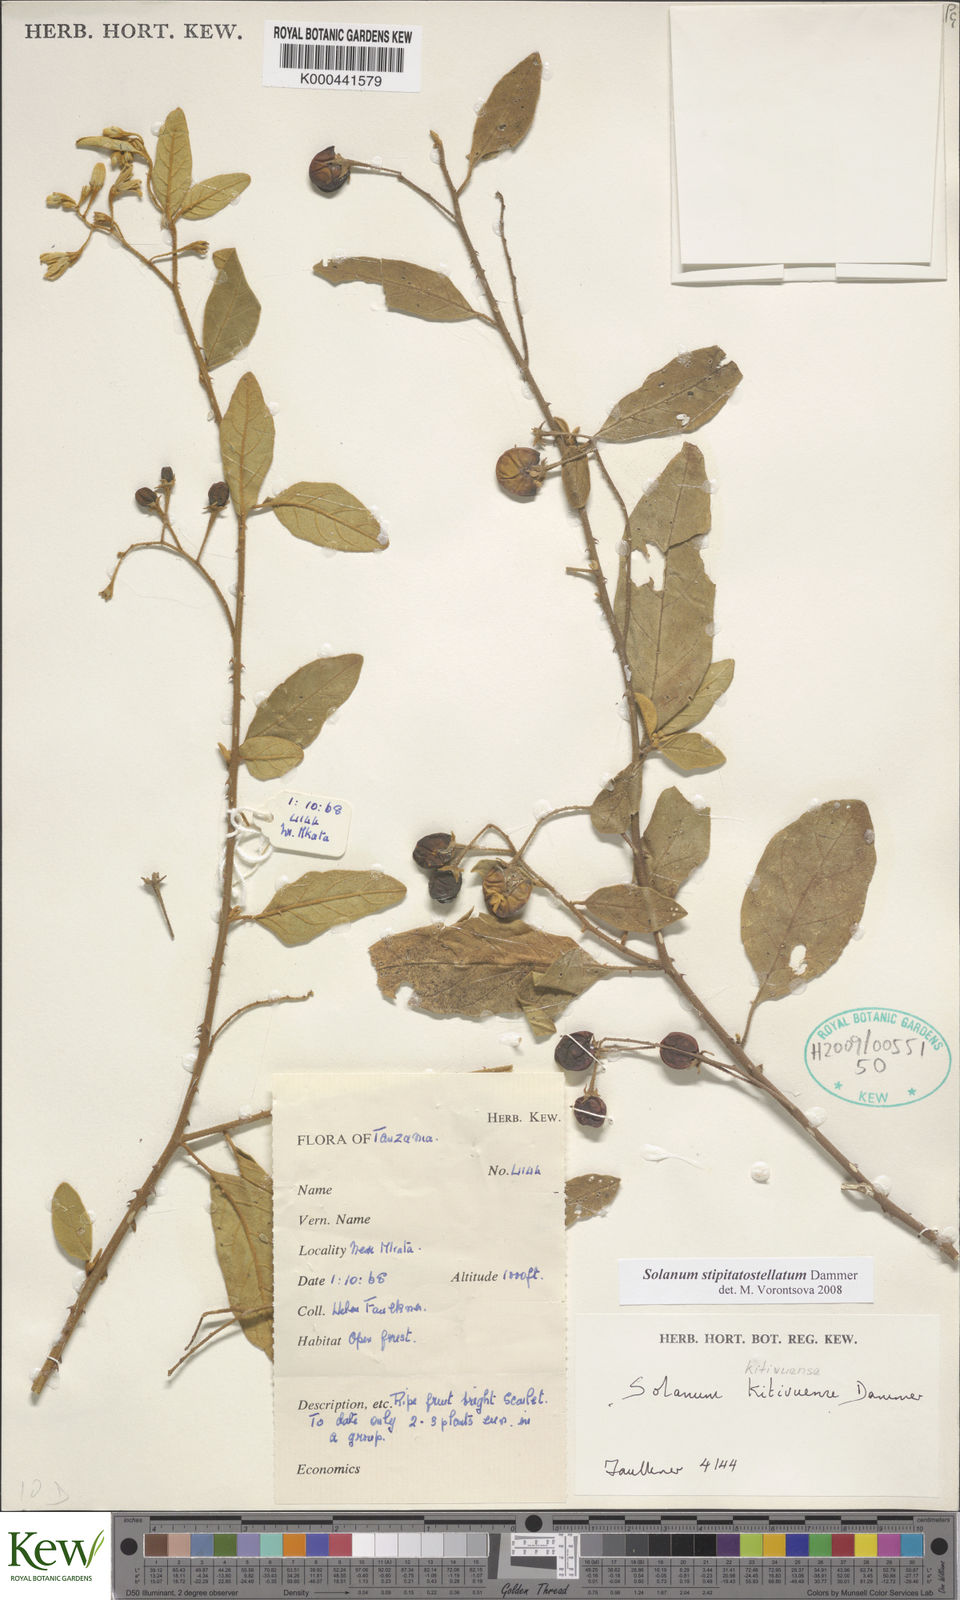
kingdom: Plantae
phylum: Tracheophyta
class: Magnoliopsida
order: Solanales
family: Solanaceae
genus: Solanum
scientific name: Solanum stipitatostellatum
